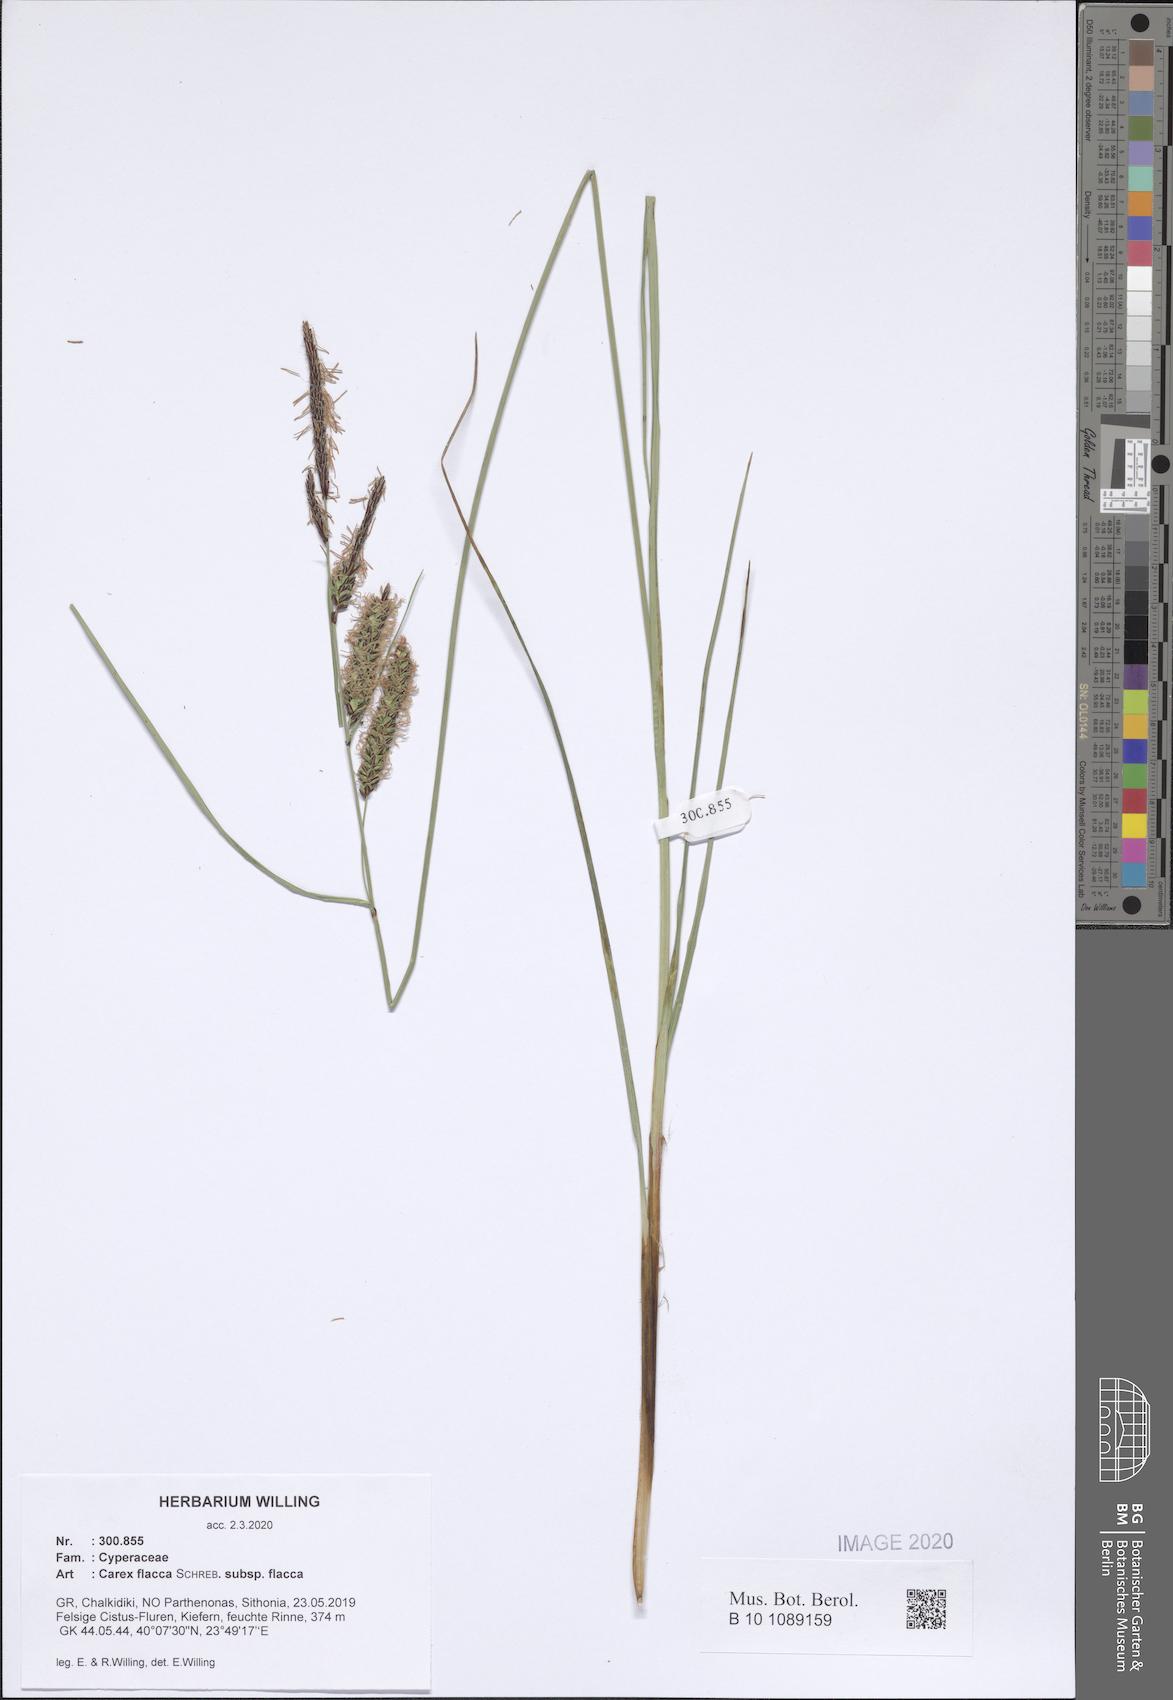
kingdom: Plantae
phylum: Tracheophyta
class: Liliopsida
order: Poales
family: Cyperaceae
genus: Carex
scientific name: Carex flacca
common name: Glaucous sedge
